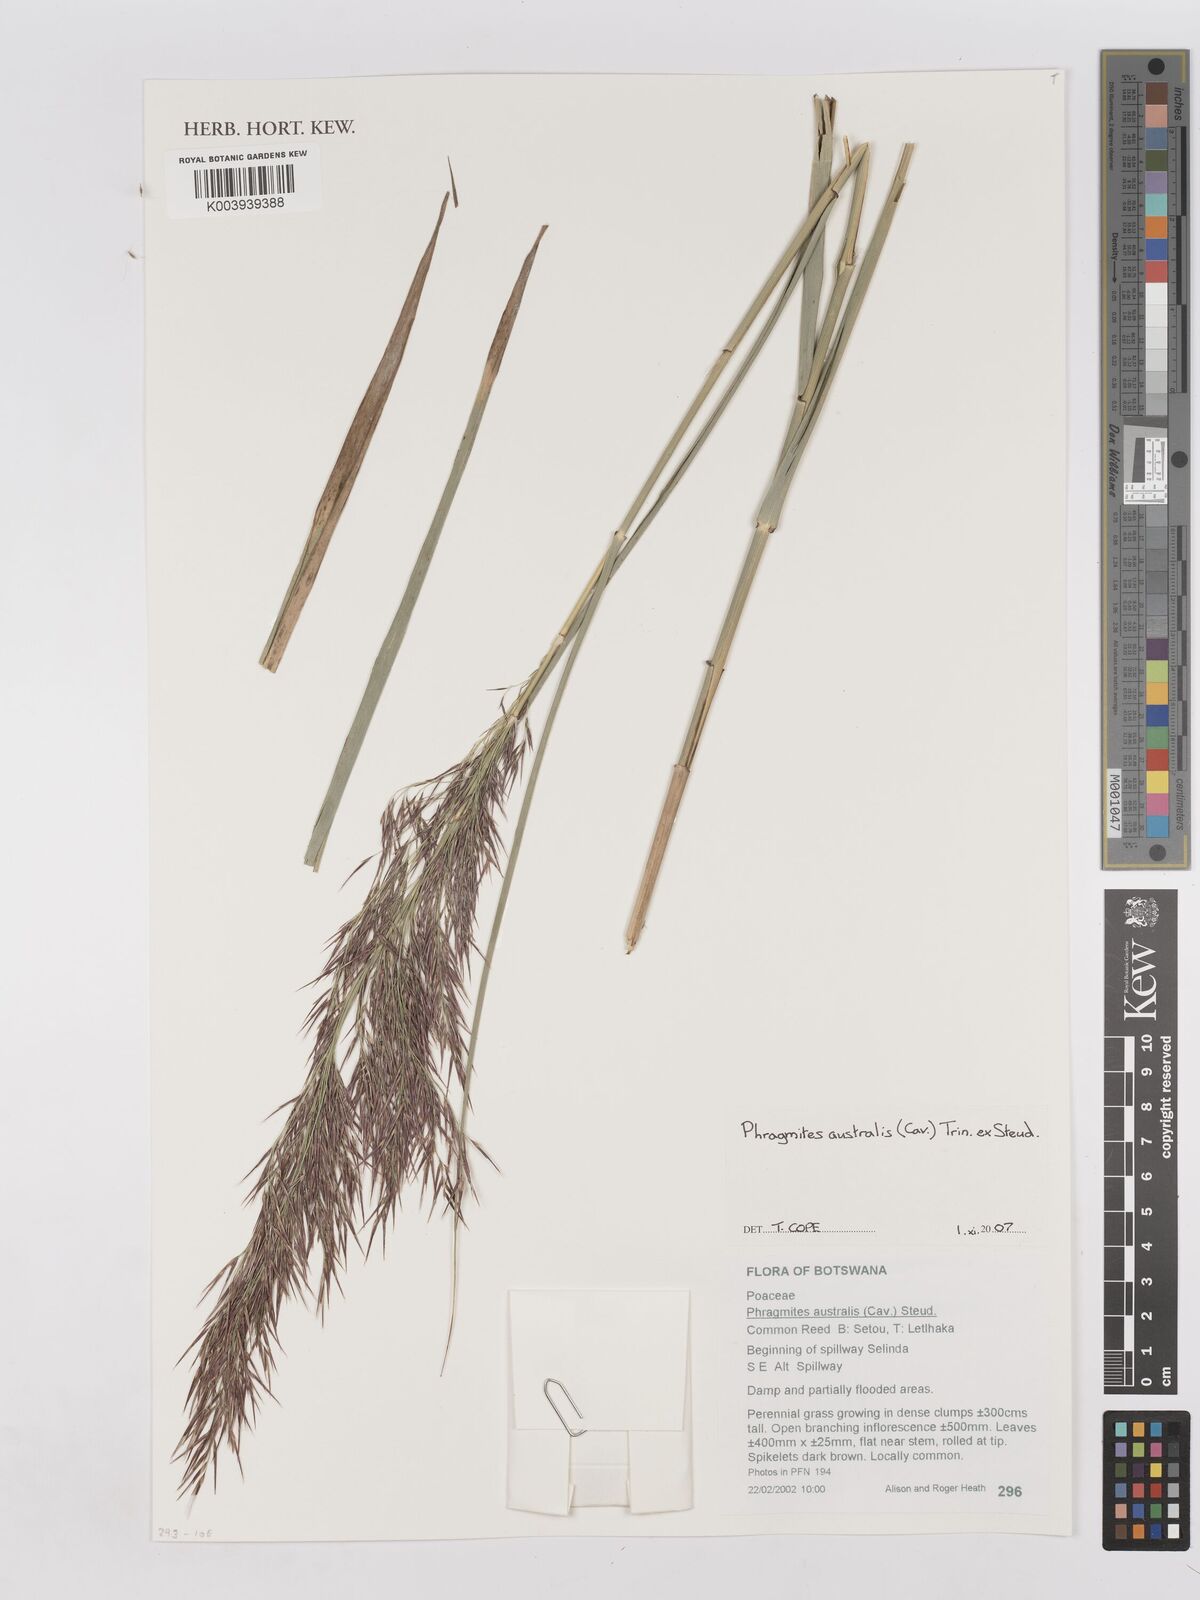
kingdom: Plantae
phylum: Tracheophyta
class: Liliopsida
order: Poales
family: Poaceae
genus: Phragmites
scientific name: Phragmites australis
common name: Common reed
